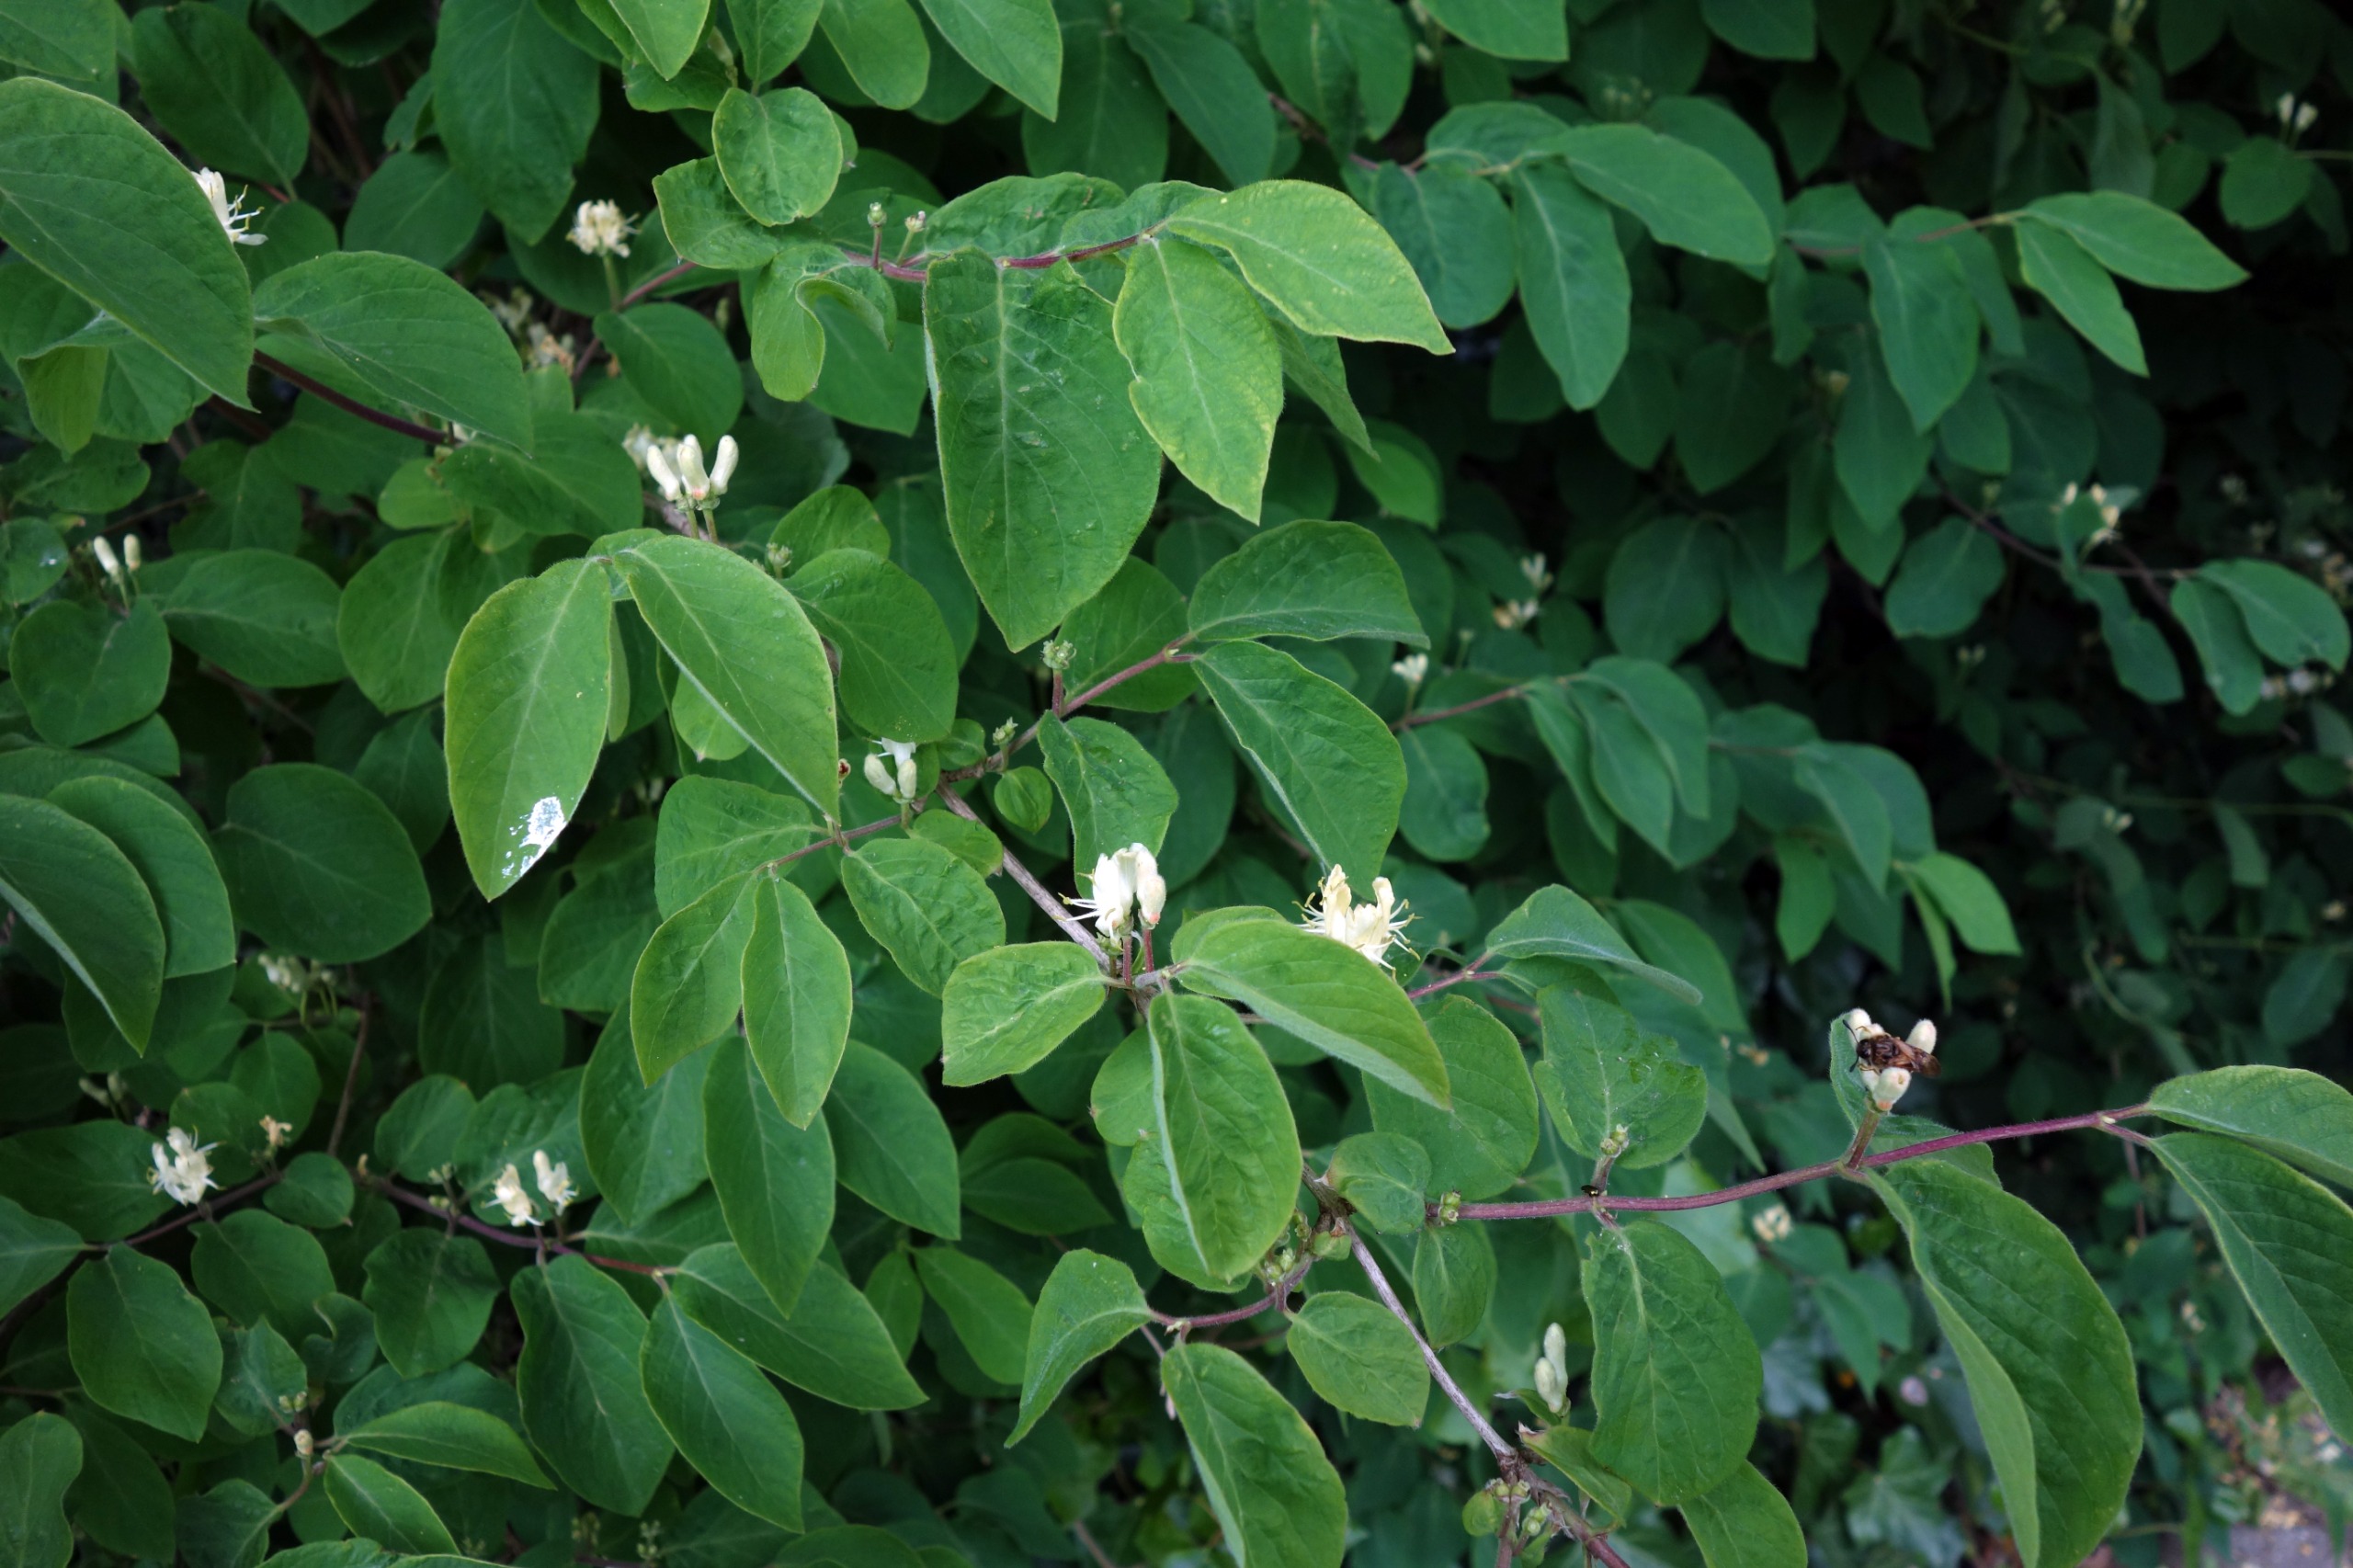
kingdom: Plantae
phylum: Tracheophyta
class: Magnoliopsida
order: Dipsacales
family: Caprifoliaceae
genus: Lonicera
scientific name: Lonicera xylosteum
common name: Dunet gedeblad
